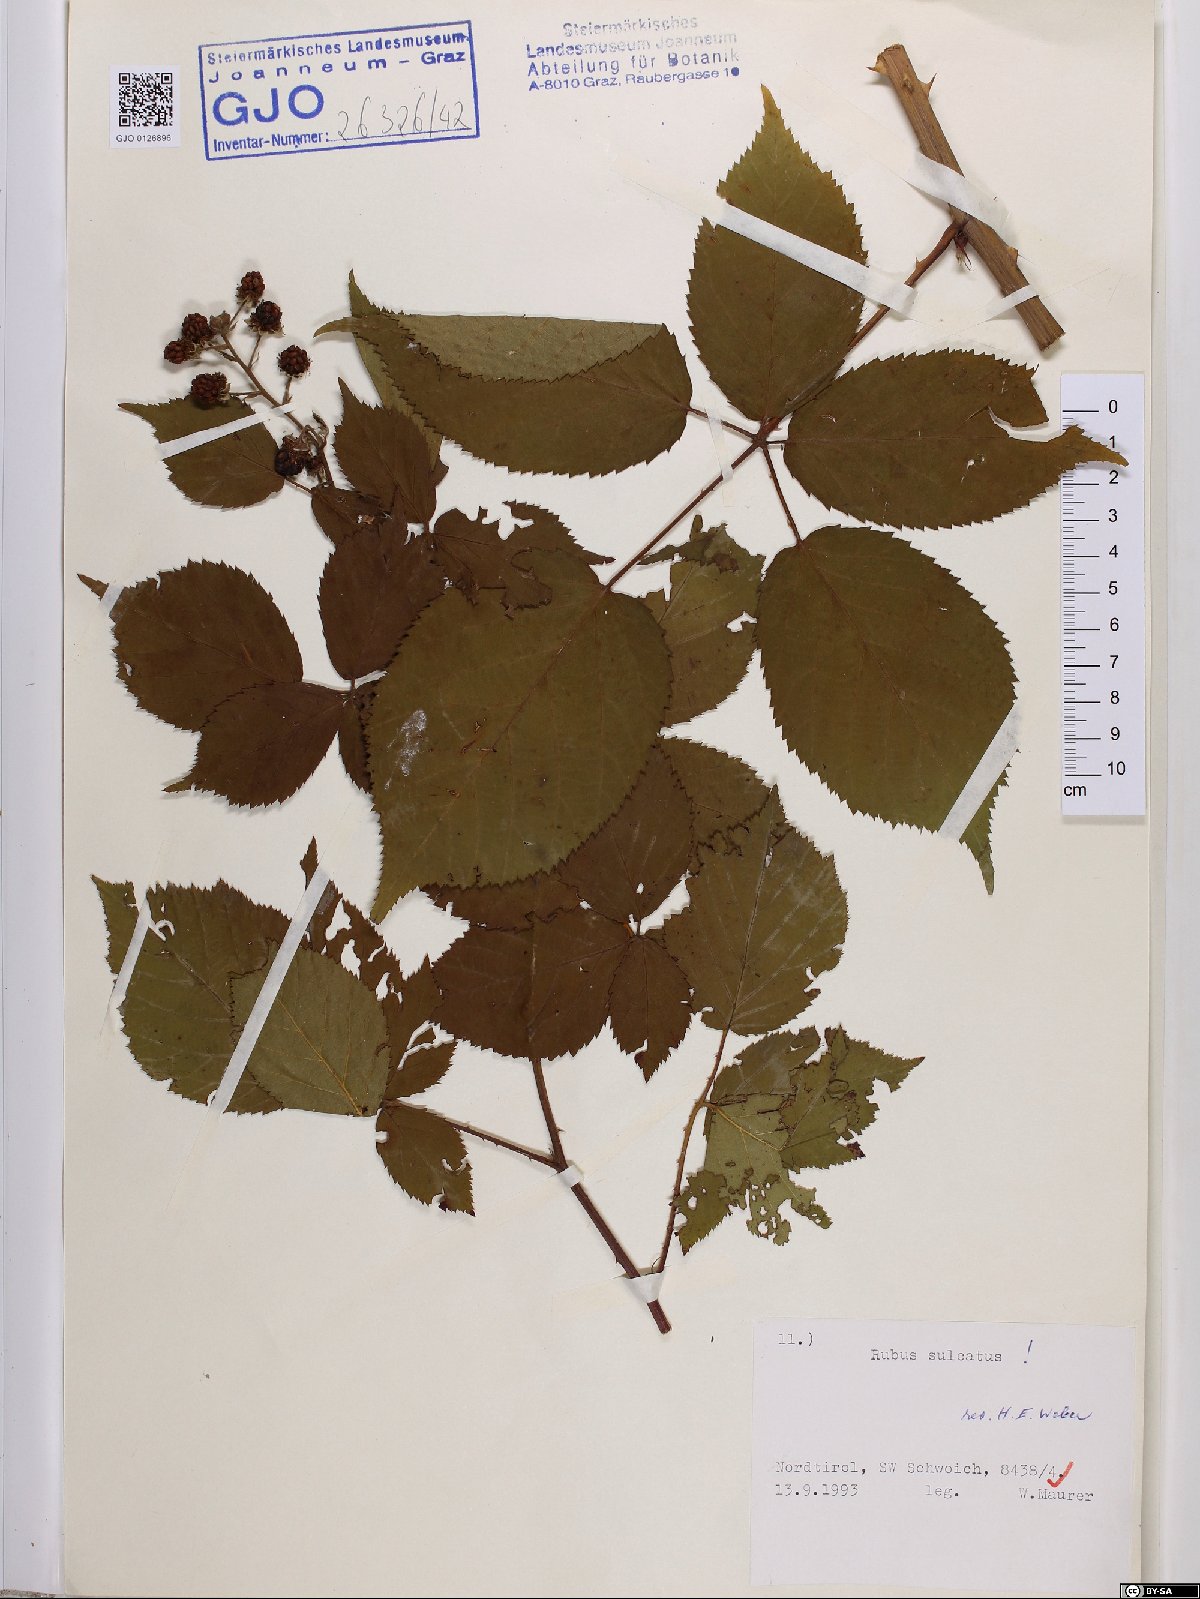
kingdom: Plantae
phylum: Tracheophyta
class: Magnoliopsida
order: Rosales
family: Rosaceae
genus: Rubus
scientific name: Rubus sulcatus
